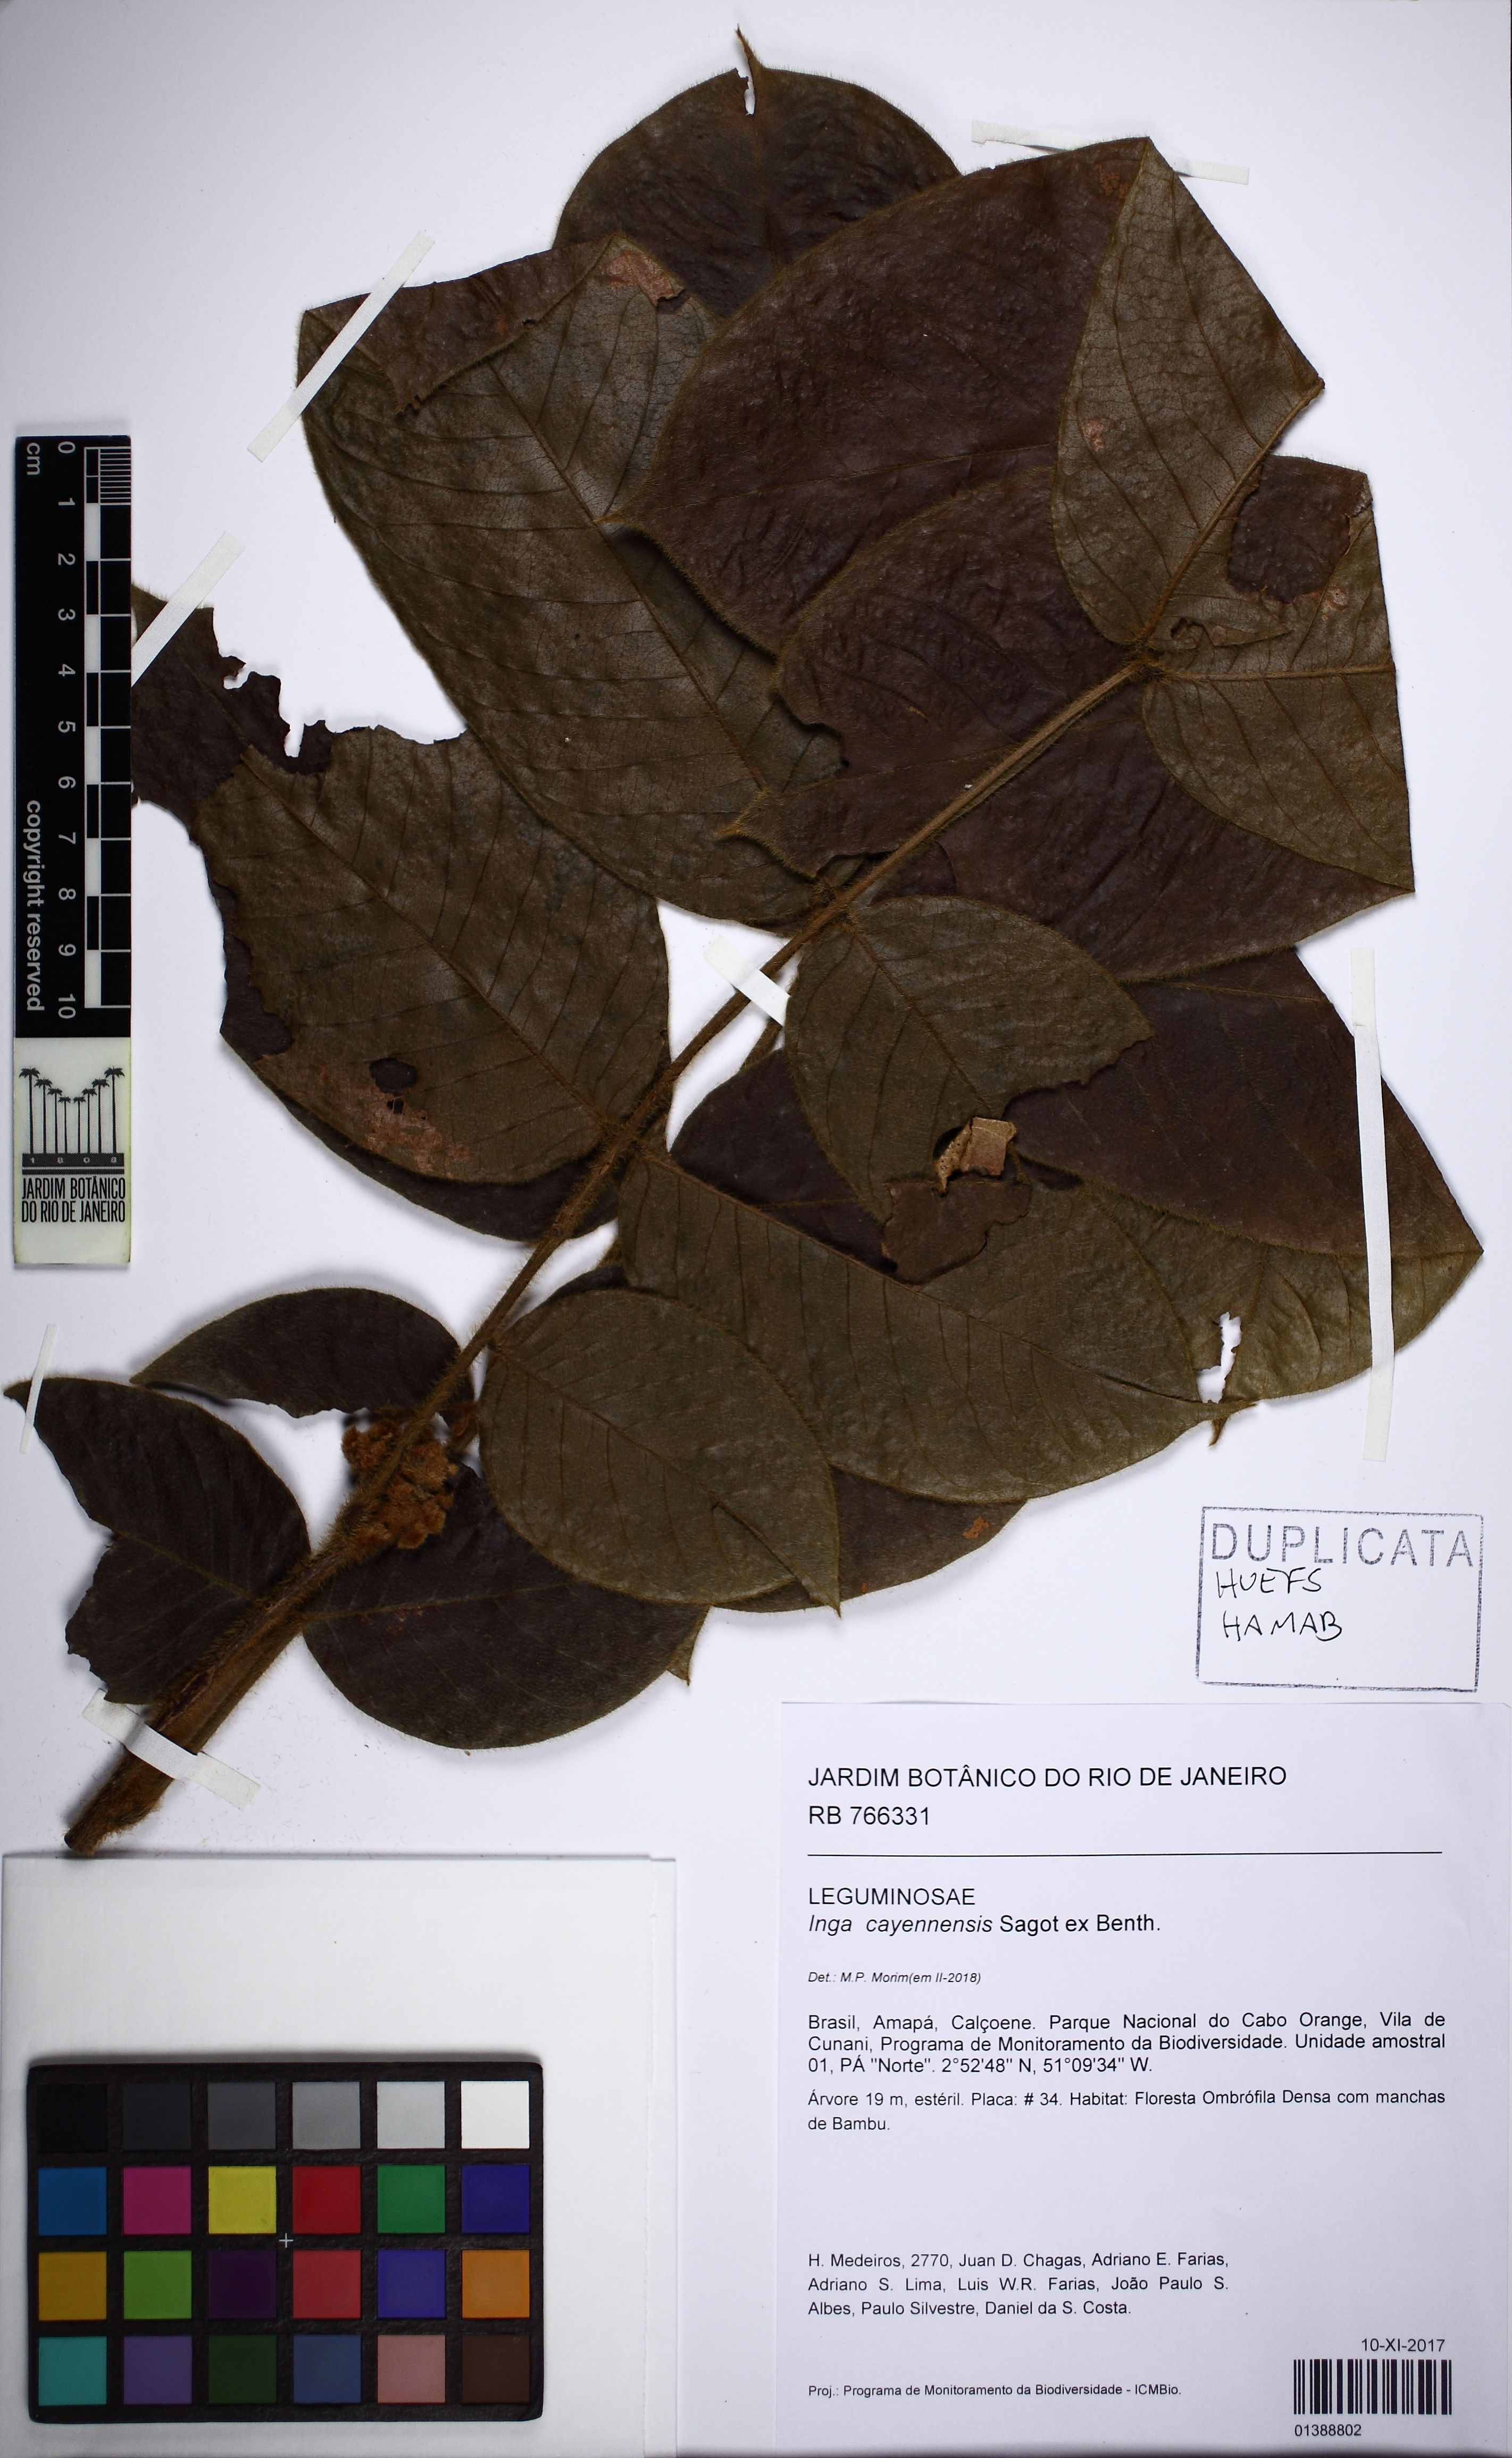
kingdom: Plantae
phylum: Tracheophyta
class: Magnoliopsida
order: Fabales
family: Fabaceae
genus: Inga
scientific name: Inga cayennensis
